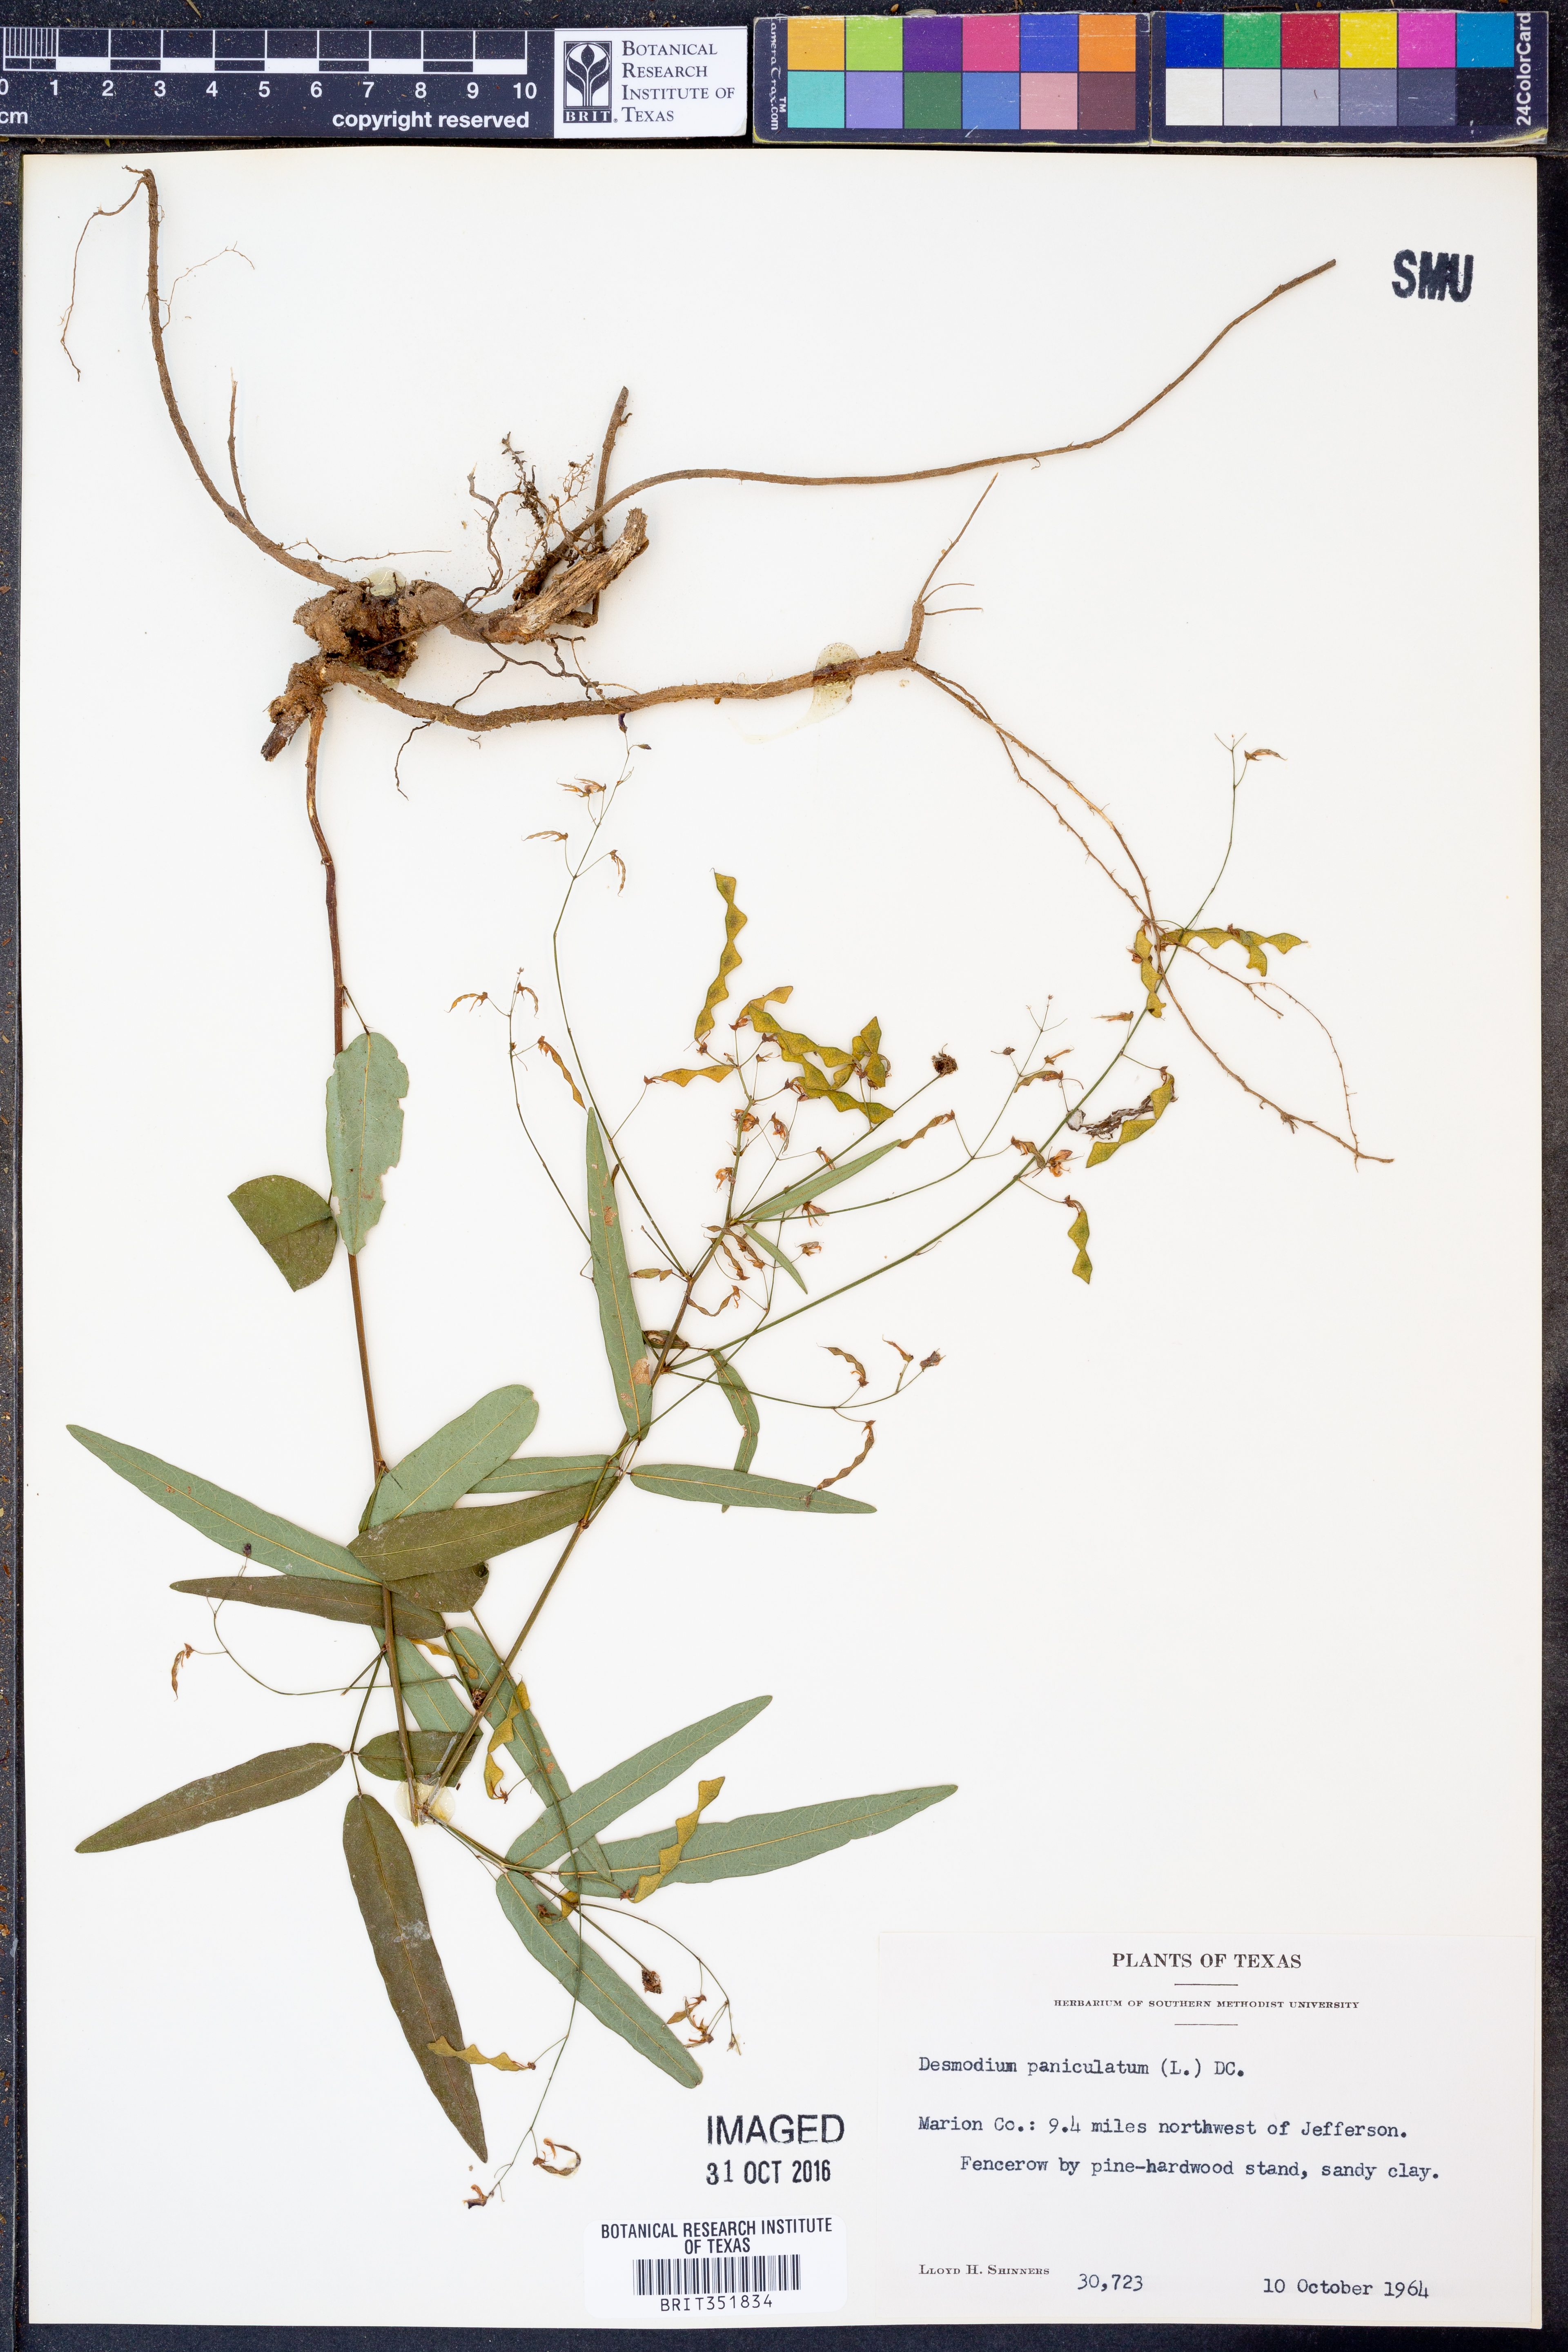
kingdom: Plantae
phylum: Tracheophyta
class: Magnoliopsida
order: Fabales
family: Fabaceae
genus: Desmodium
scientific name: Desmodium paniculatum
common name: Panicled tick-clover
